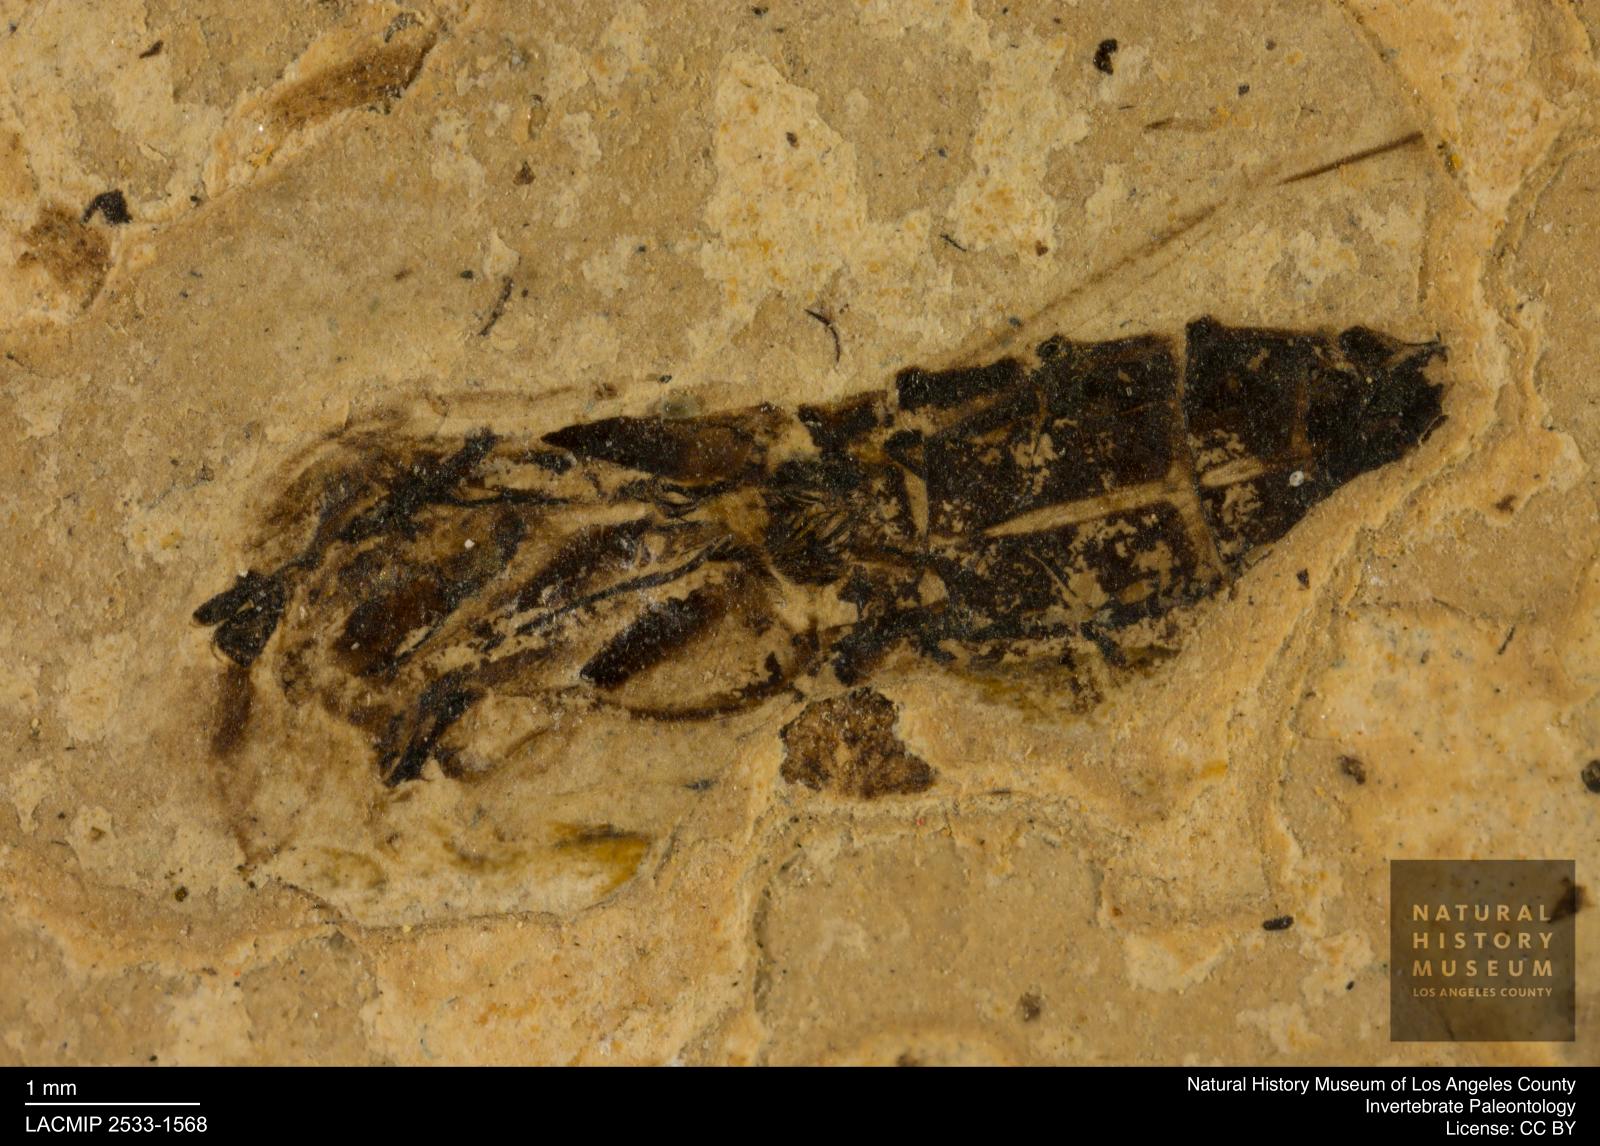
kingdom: Animalia
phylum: Arthropoda
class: Insecta
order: Hemiptera
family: Notonectidae
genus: Notonecta
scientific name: Notonecta
